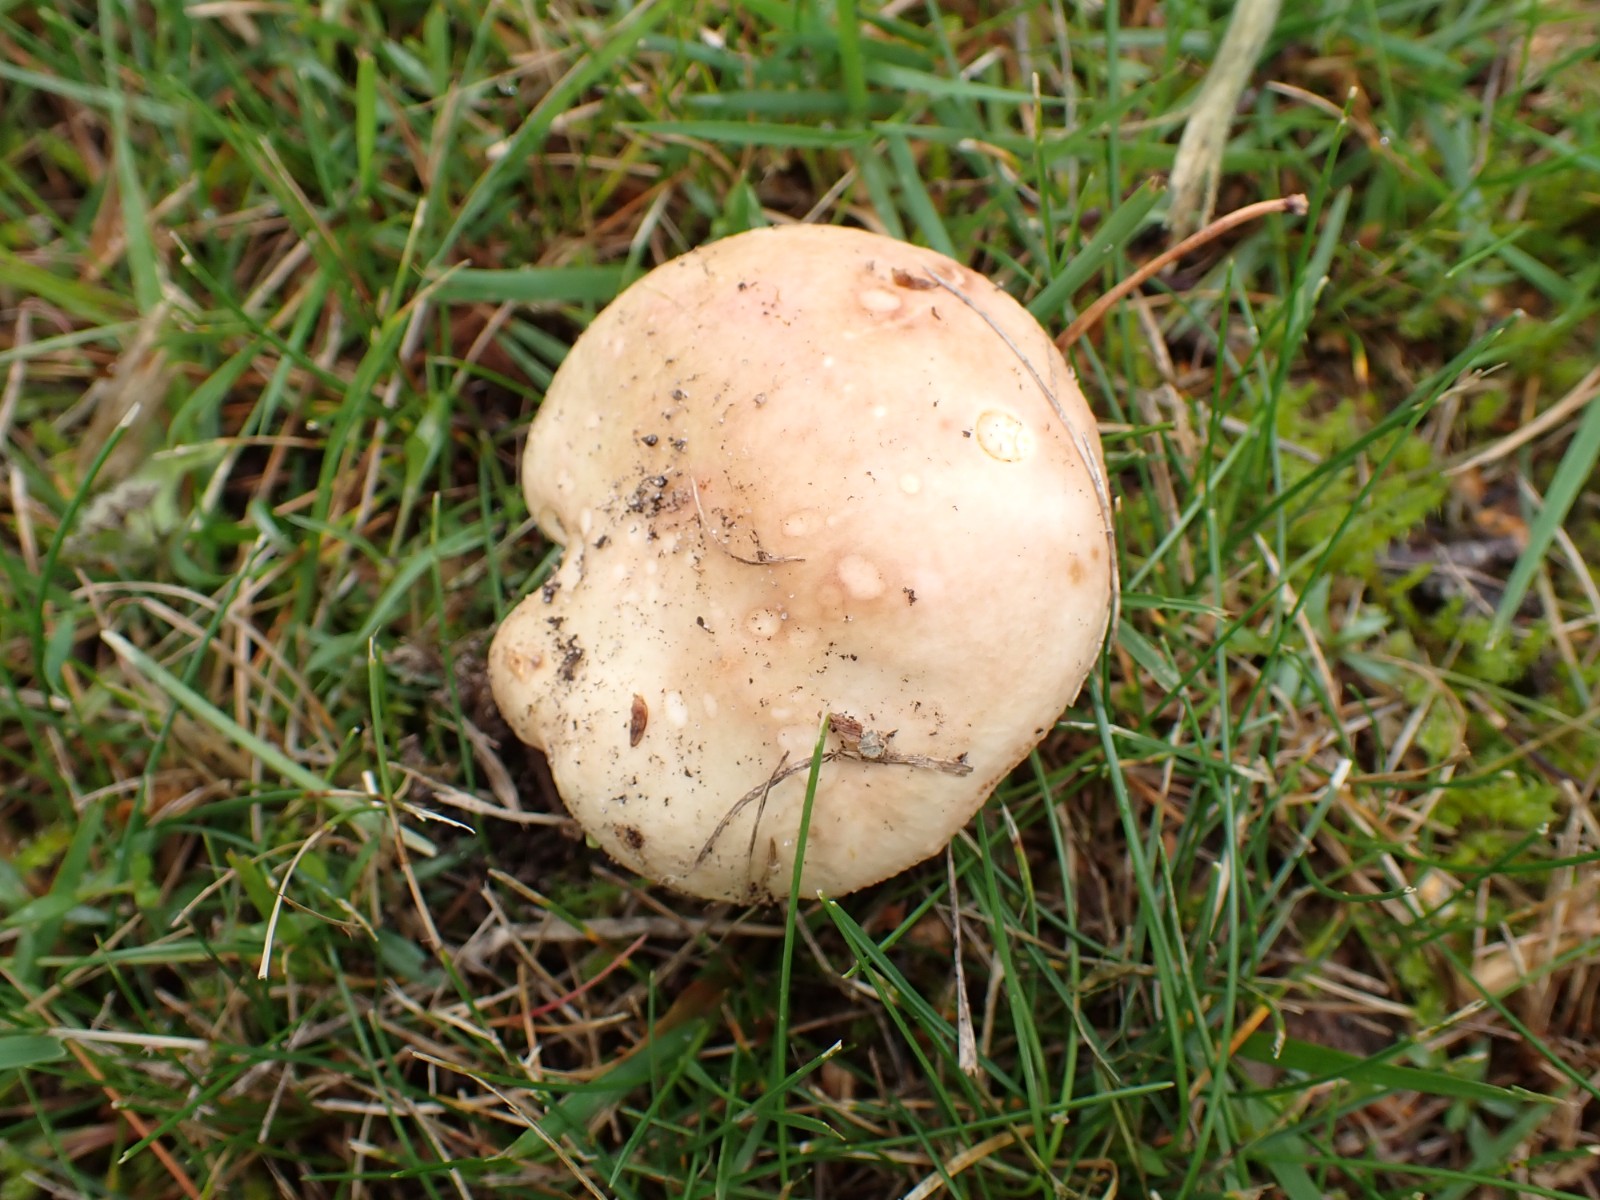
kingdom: Fungi
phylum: Basidiomycota
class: Agaricomycetes
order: Russulales
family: Russulaceae
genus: Russula
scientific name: Russula versicolor
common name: foranderlig skørhat
